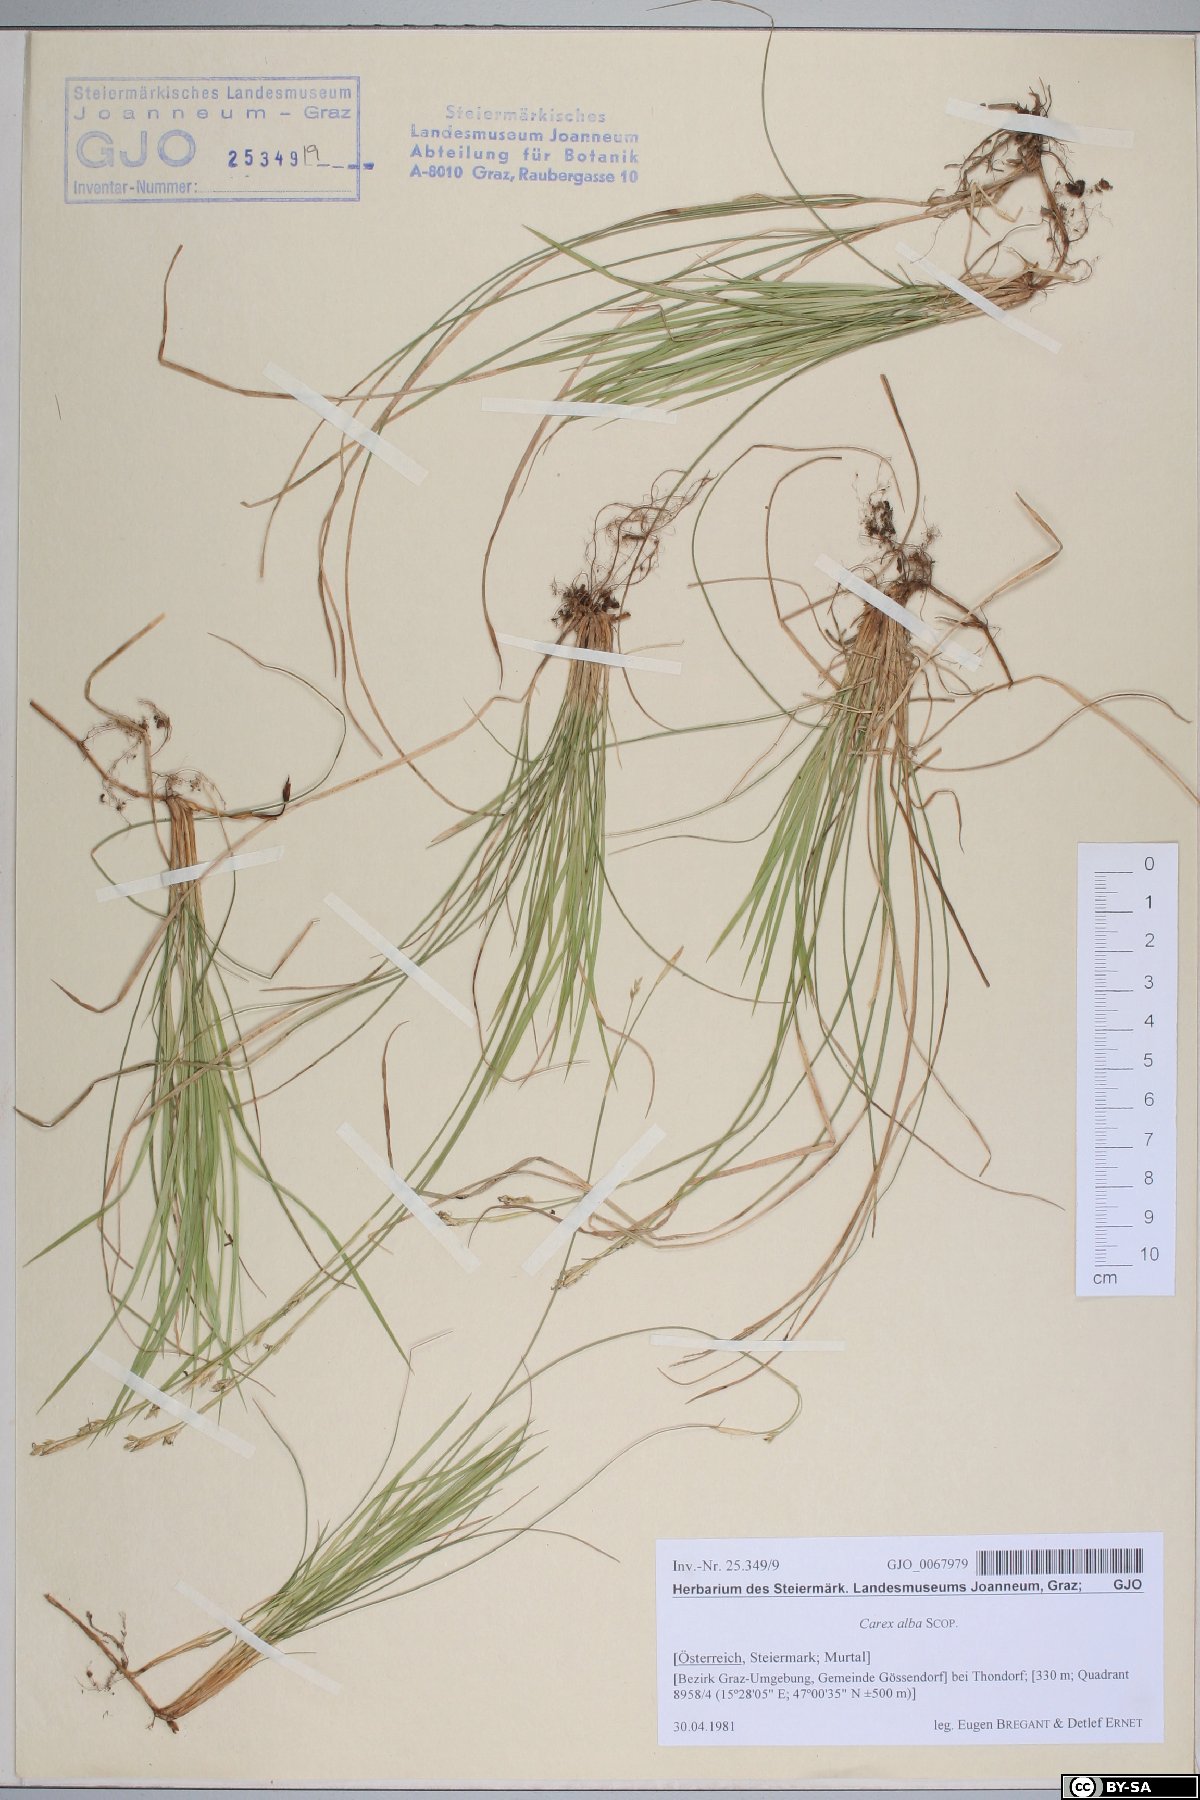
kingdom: Plantae
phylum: Tracheophyta
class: Liliopsida
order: Poales
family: Cyperaceae
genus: Carex
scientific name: Carex alba
